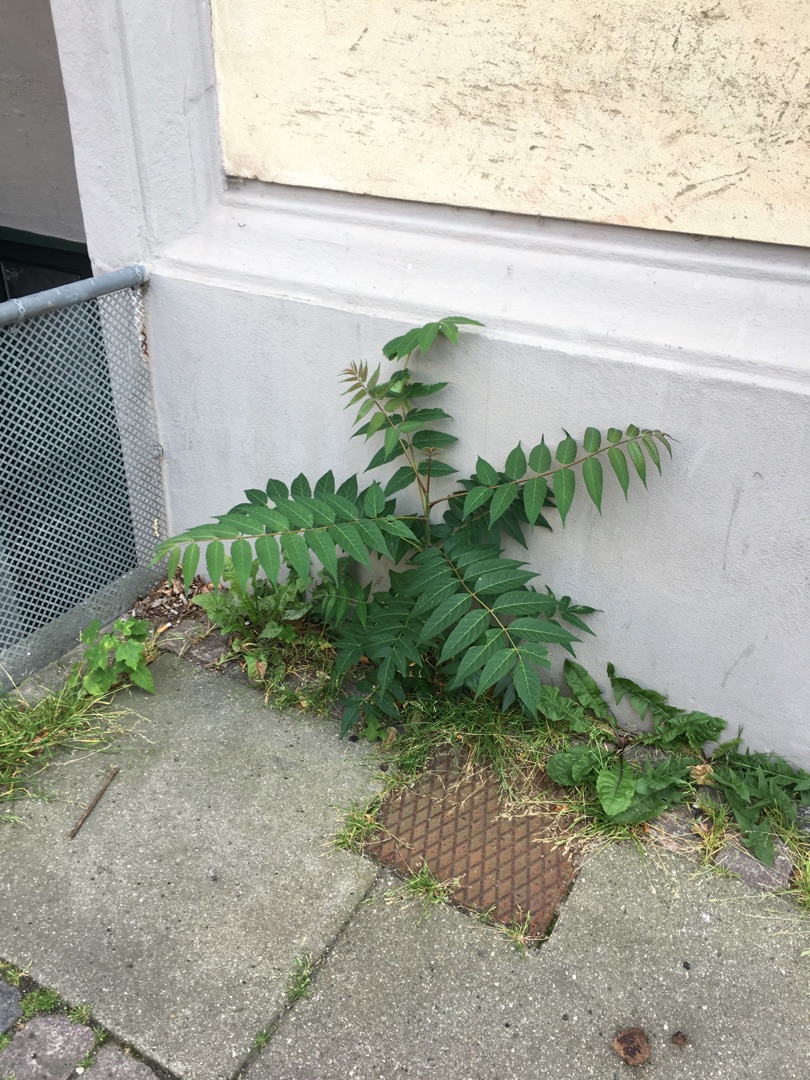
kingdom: Plantae
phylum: Tracheophyta
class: Magnoliopsida
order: Sapindales
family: Simaroubaceae
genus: Ailanthus
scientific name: Ailanthus altissima
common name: Skyrækker
